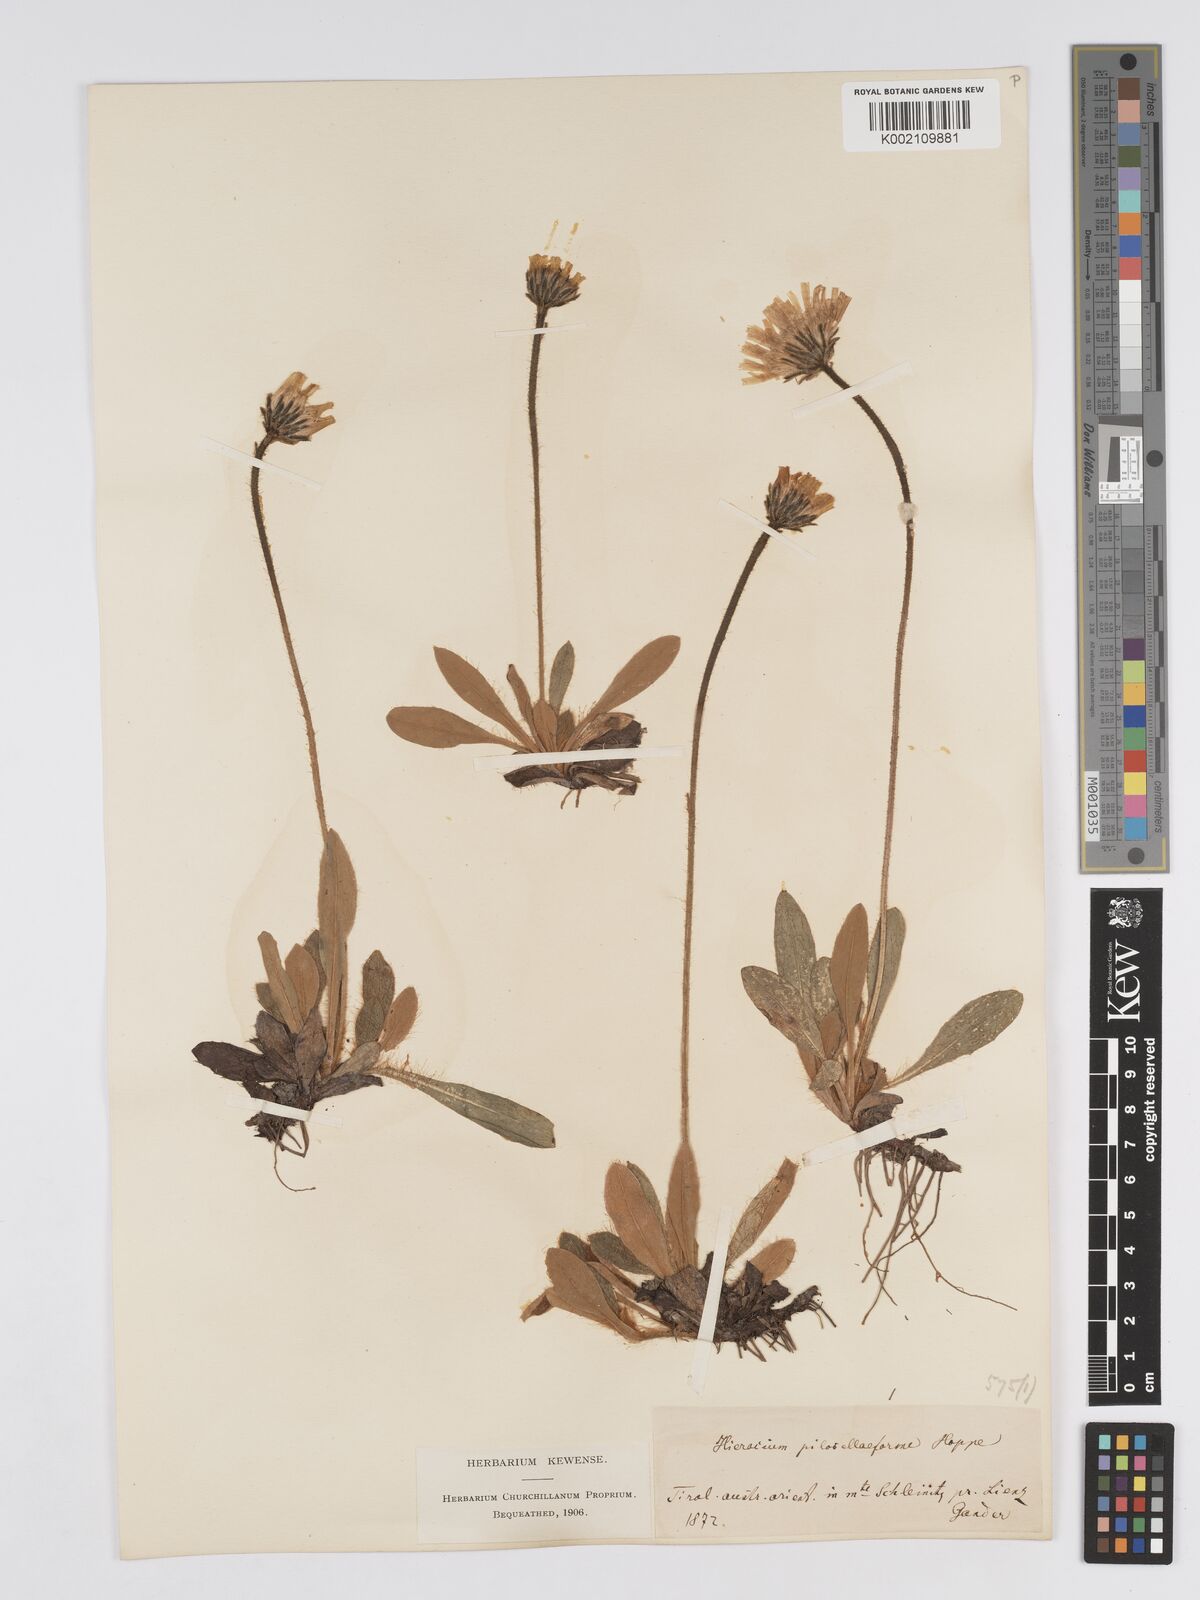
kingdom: Plantae
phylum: Tracheophyta
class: Magnoliopsida
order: Asterales
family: Asteraceae
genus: Pilosella
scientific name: Pilosella hoppeana
